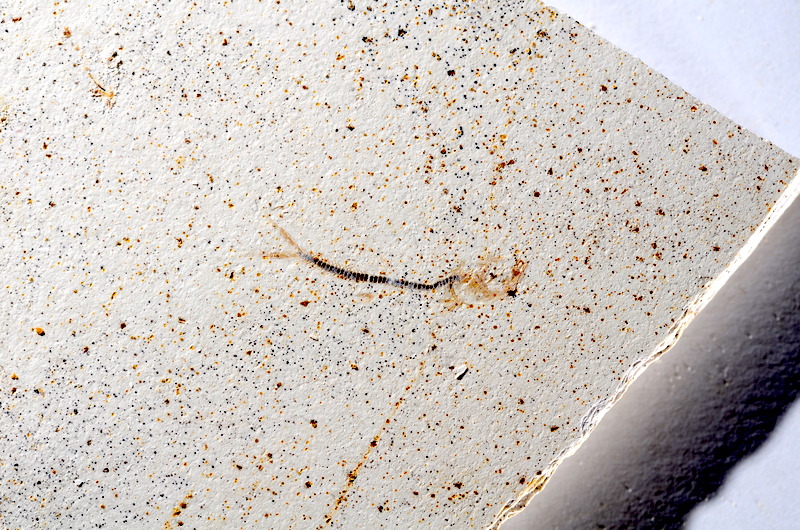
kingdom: Animalia
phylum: Chordata
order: Salmoniformes
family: Orthogonikleithridae
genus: Orthogonikleithrus
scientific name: Orthogonikleithrus hoelli
